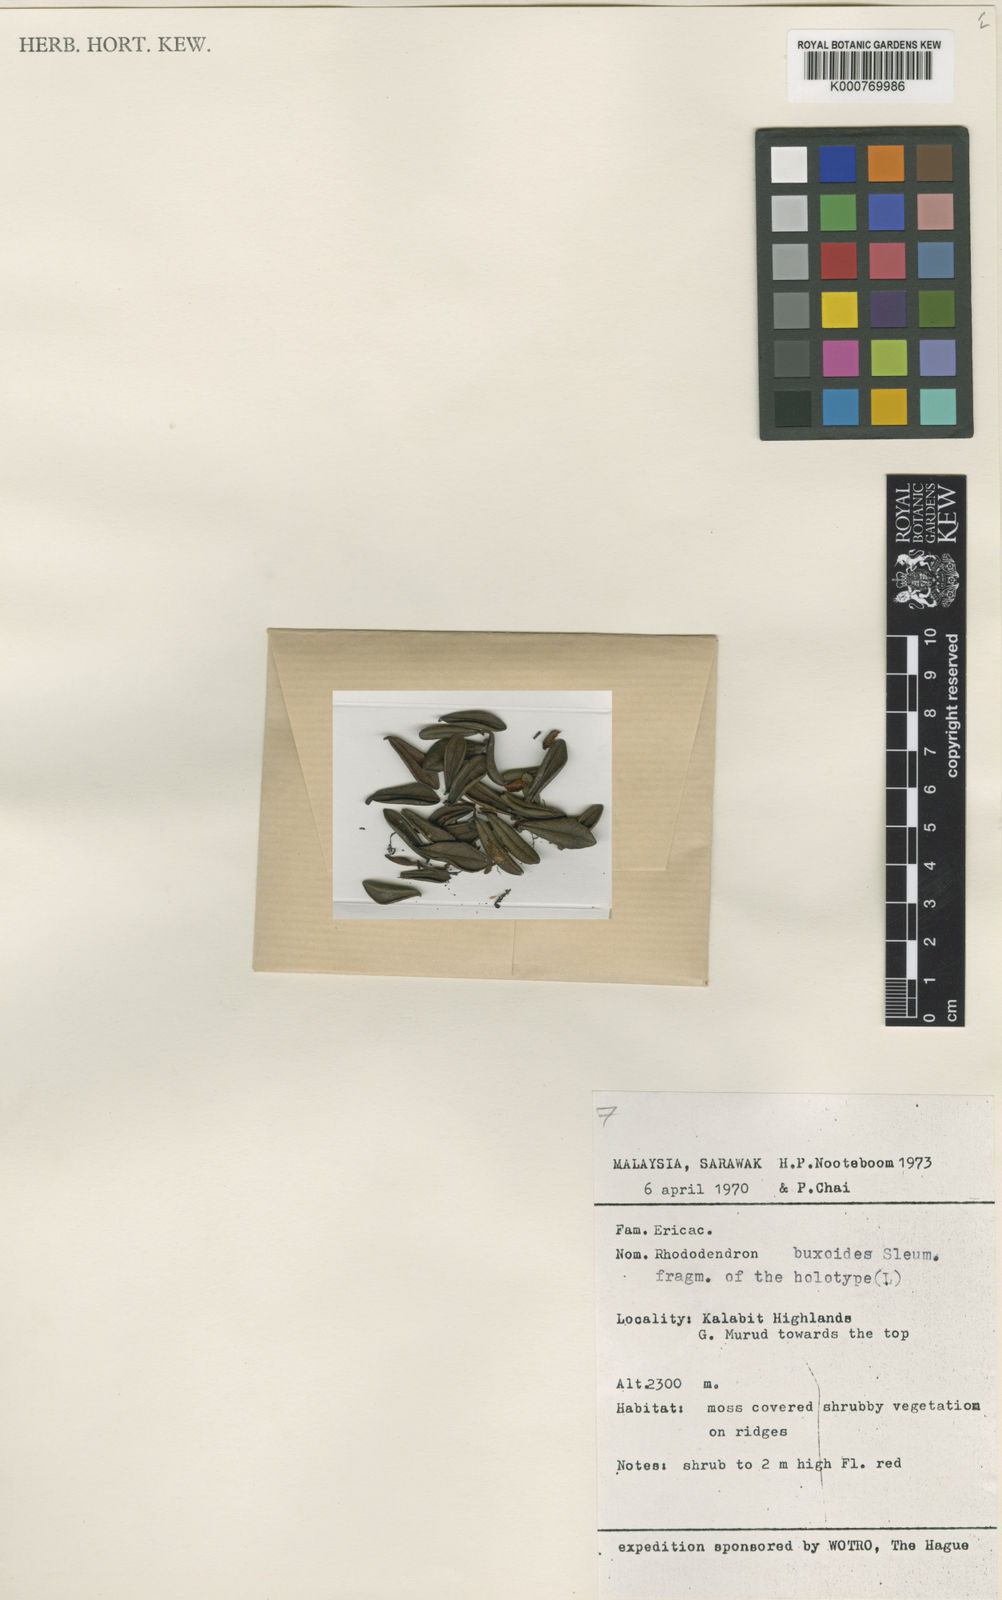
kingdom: Plantae
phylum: Tracheophyta
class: Magnoliopsida
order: Ericales
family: Ericaceae
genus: Rhododendron
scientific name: Rhododendron buxoides
